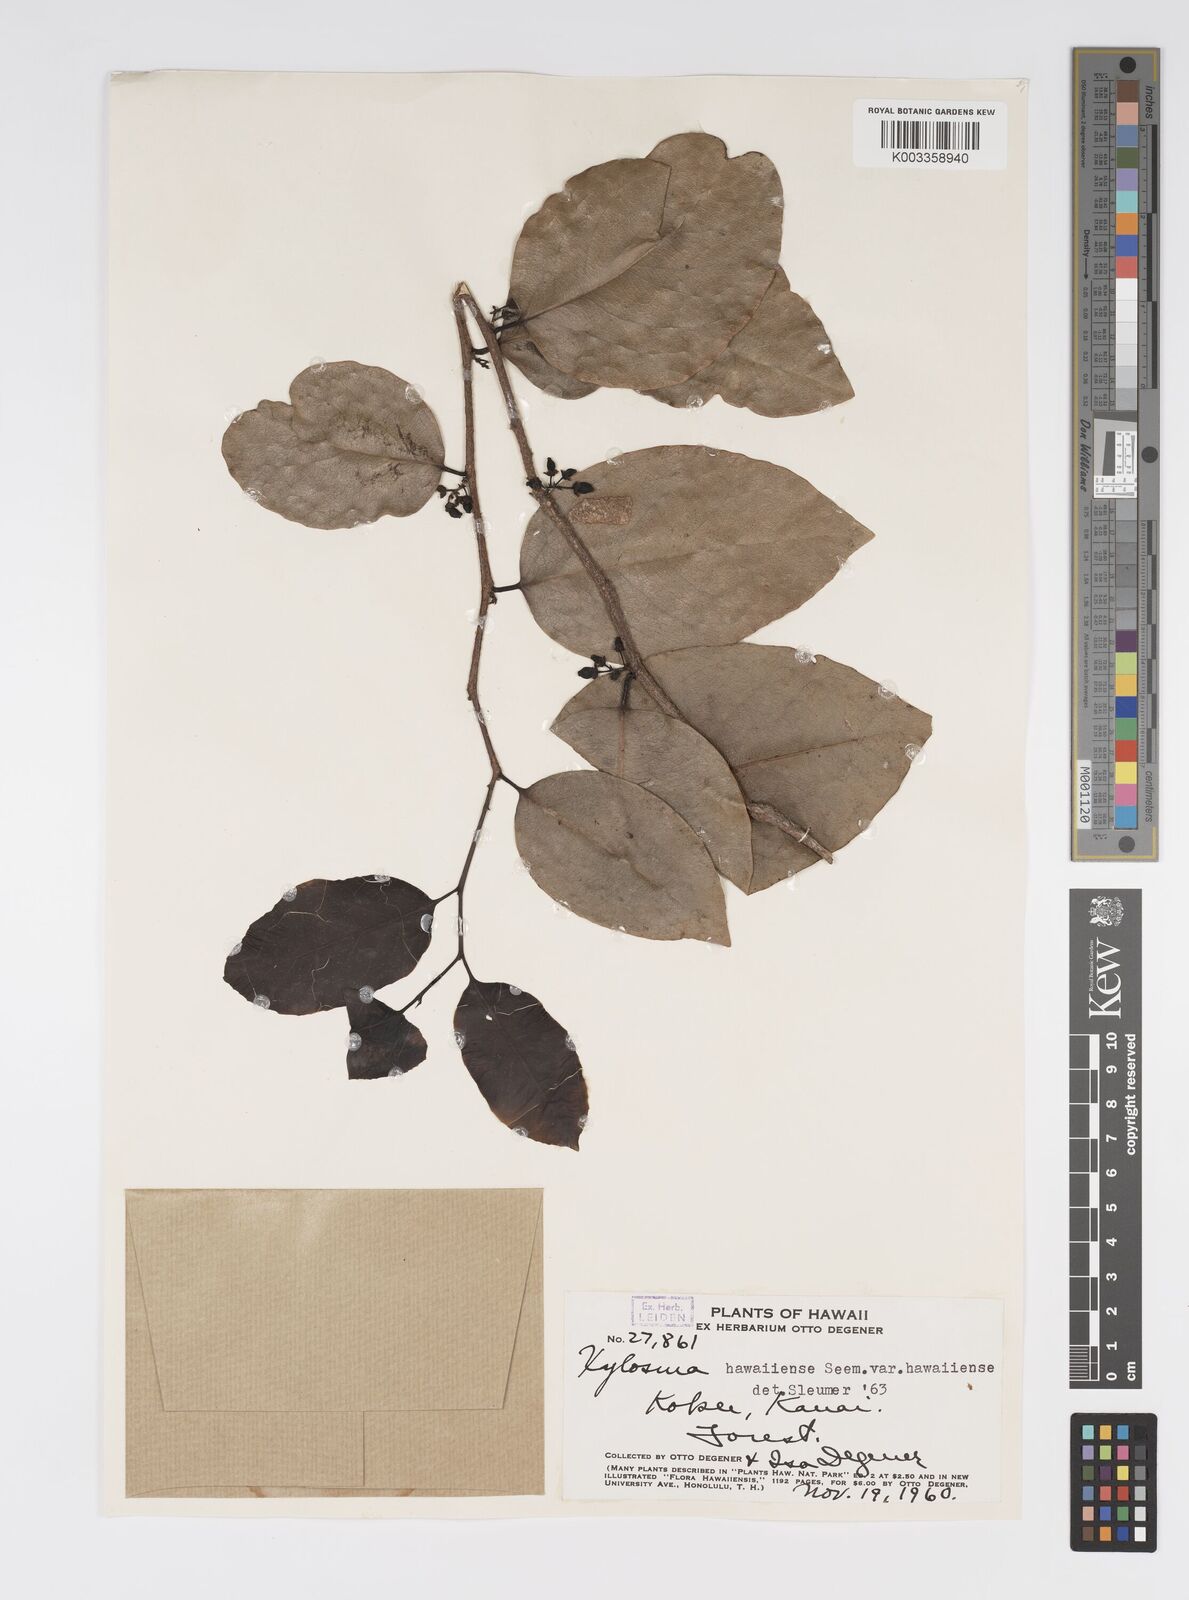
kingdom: Plantae
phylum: Tracheophyta
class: Magnoliopsida
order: Malpighiales
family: Salicaceae
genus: Xylosma
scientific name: Xylosma hawaiense
